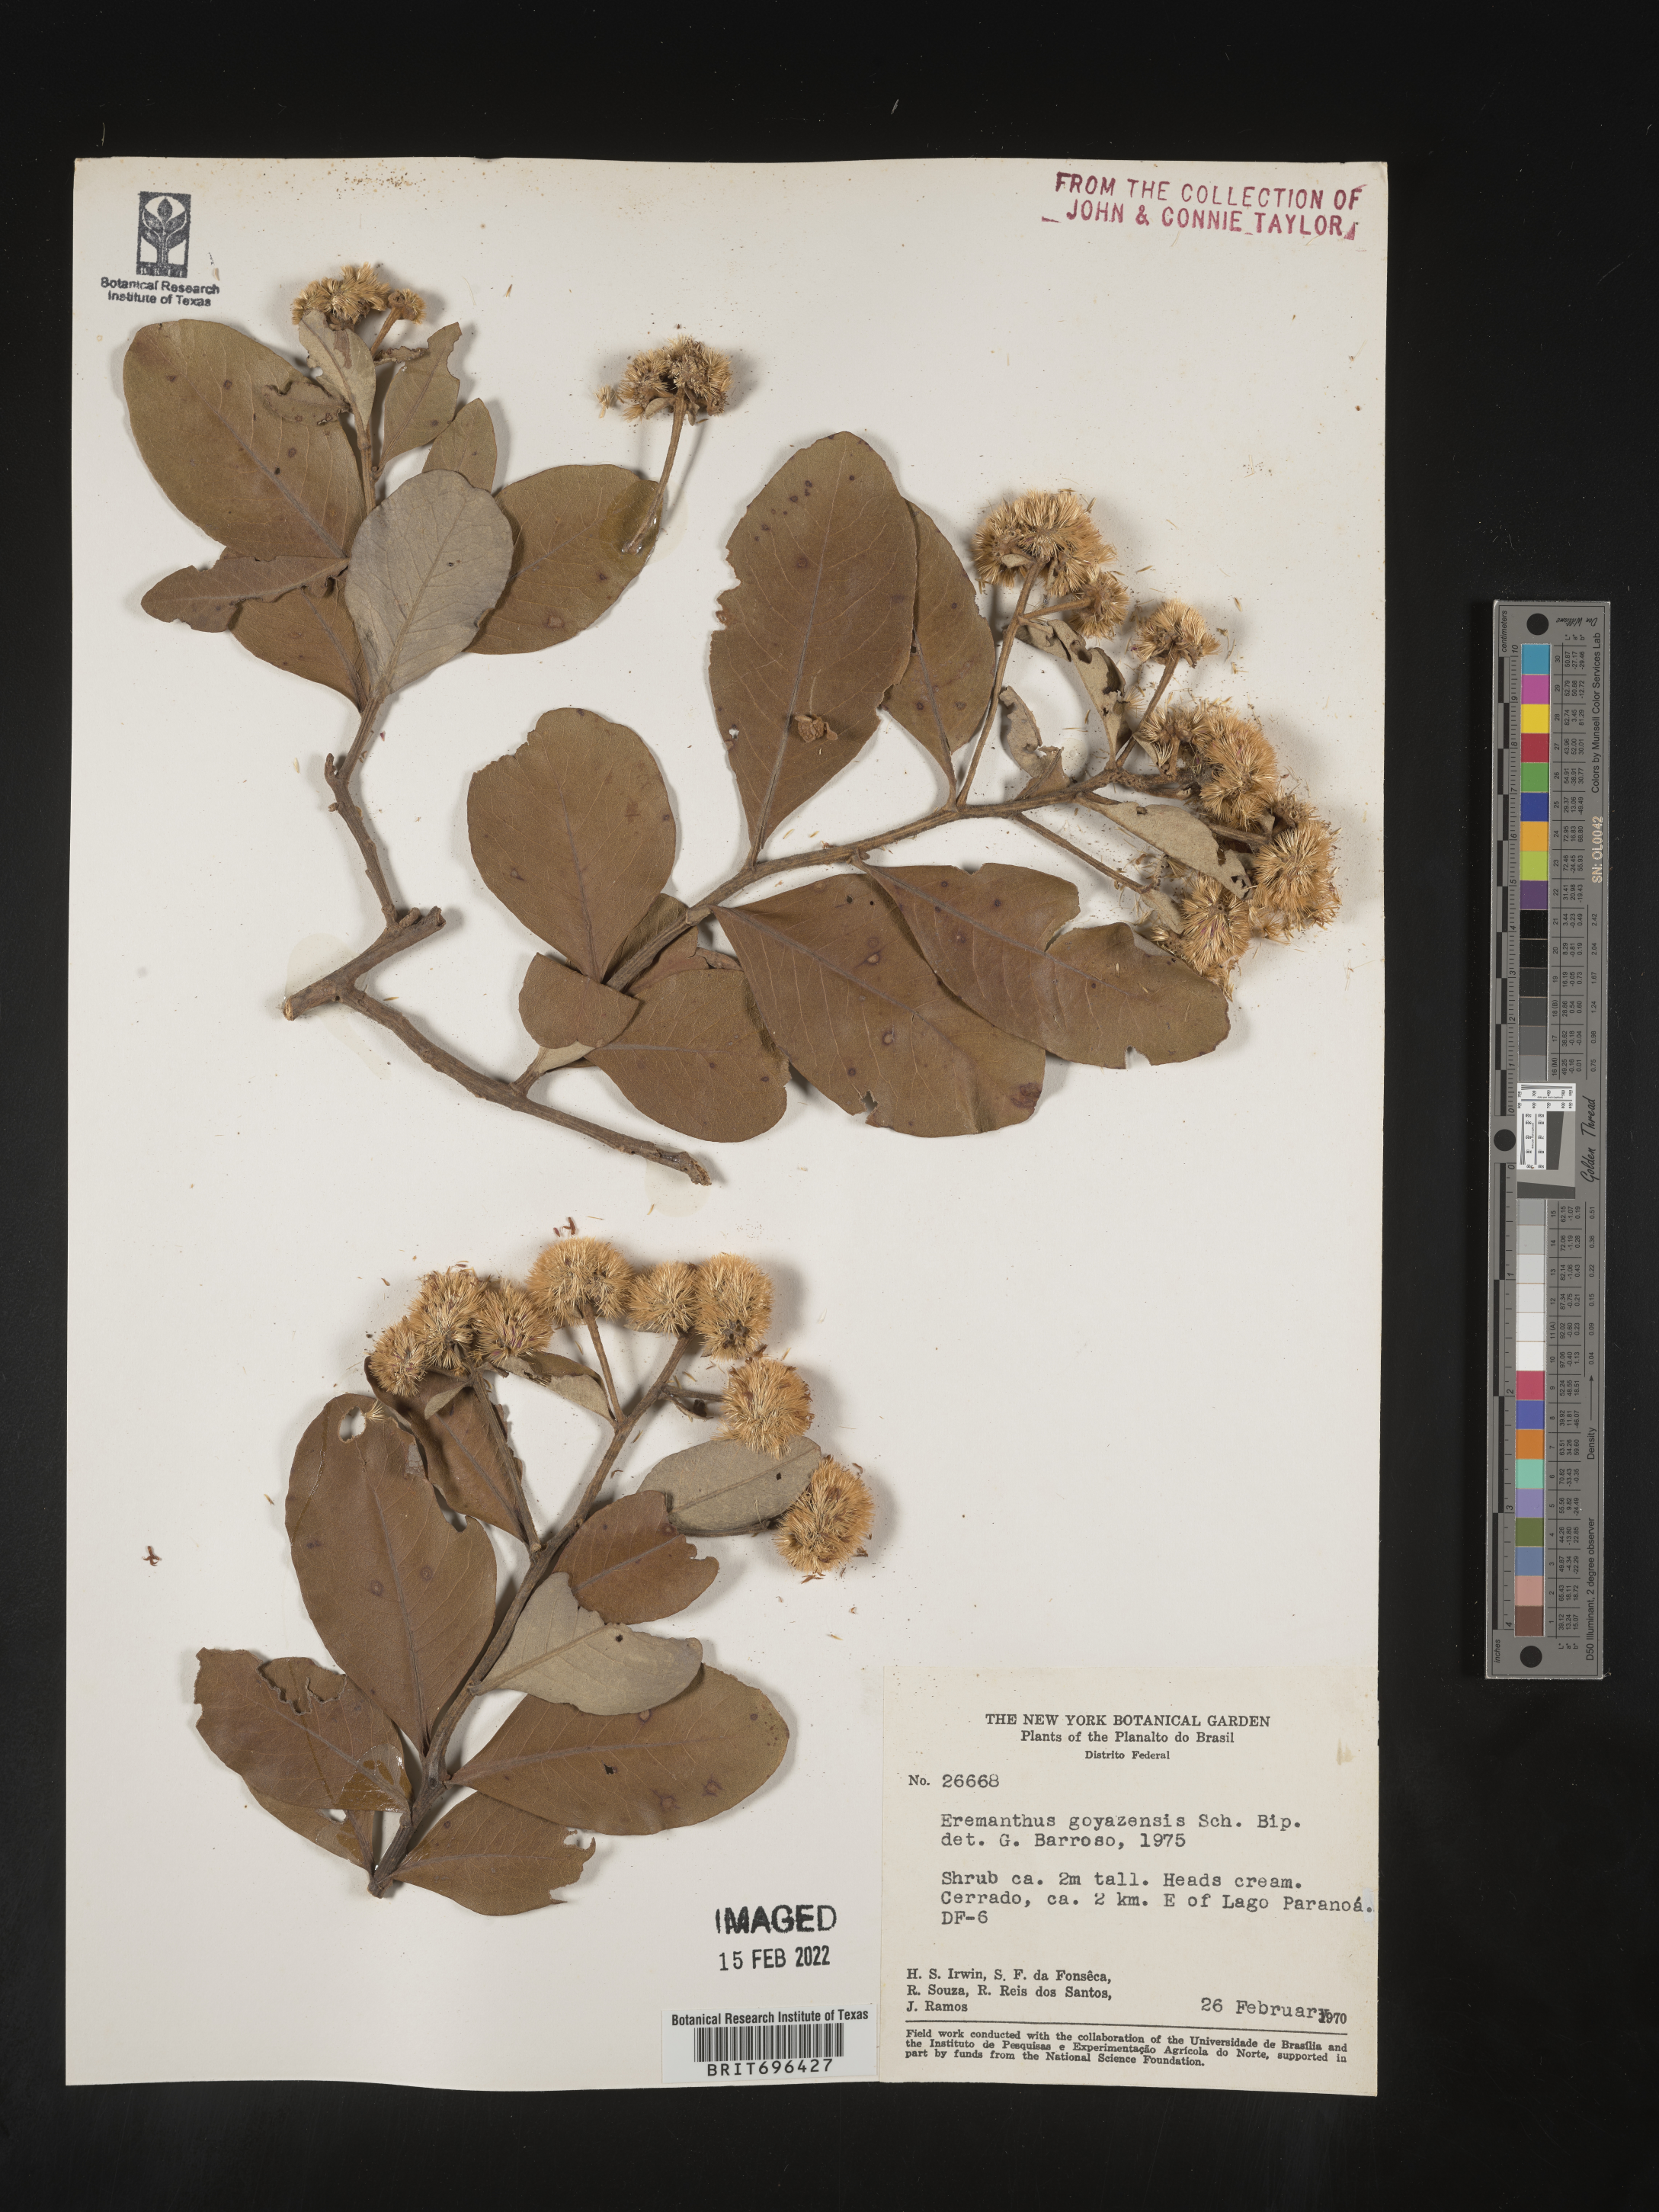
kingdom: Plantae
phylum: Tracheophyta
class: Magnoliopsida
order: Asterales
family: Asteraceae
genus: Eremanthus
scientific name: Eremanthus
